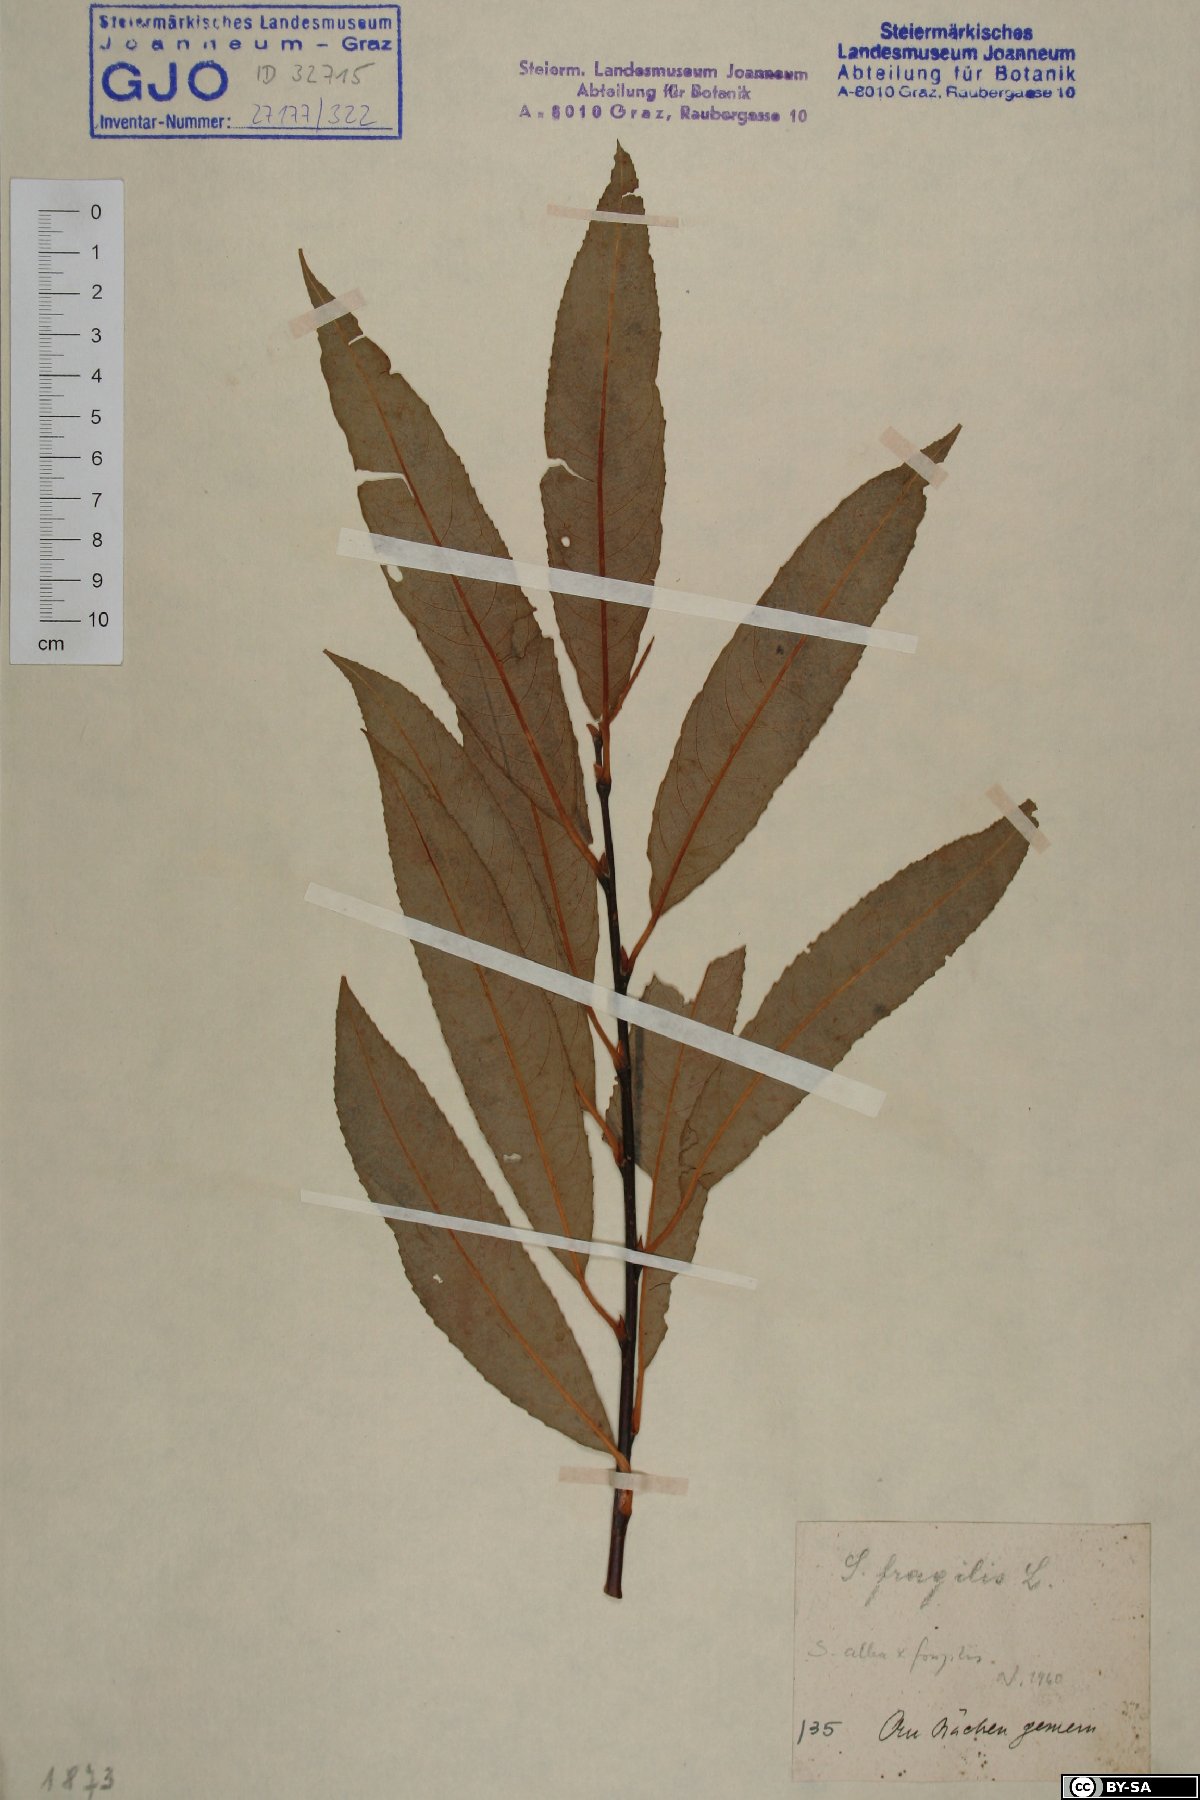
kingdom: Plantae
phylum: Tracheophyta
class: Magnoliopsida
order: Malpighiales
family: Salicaceae
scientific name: Salicaceae
